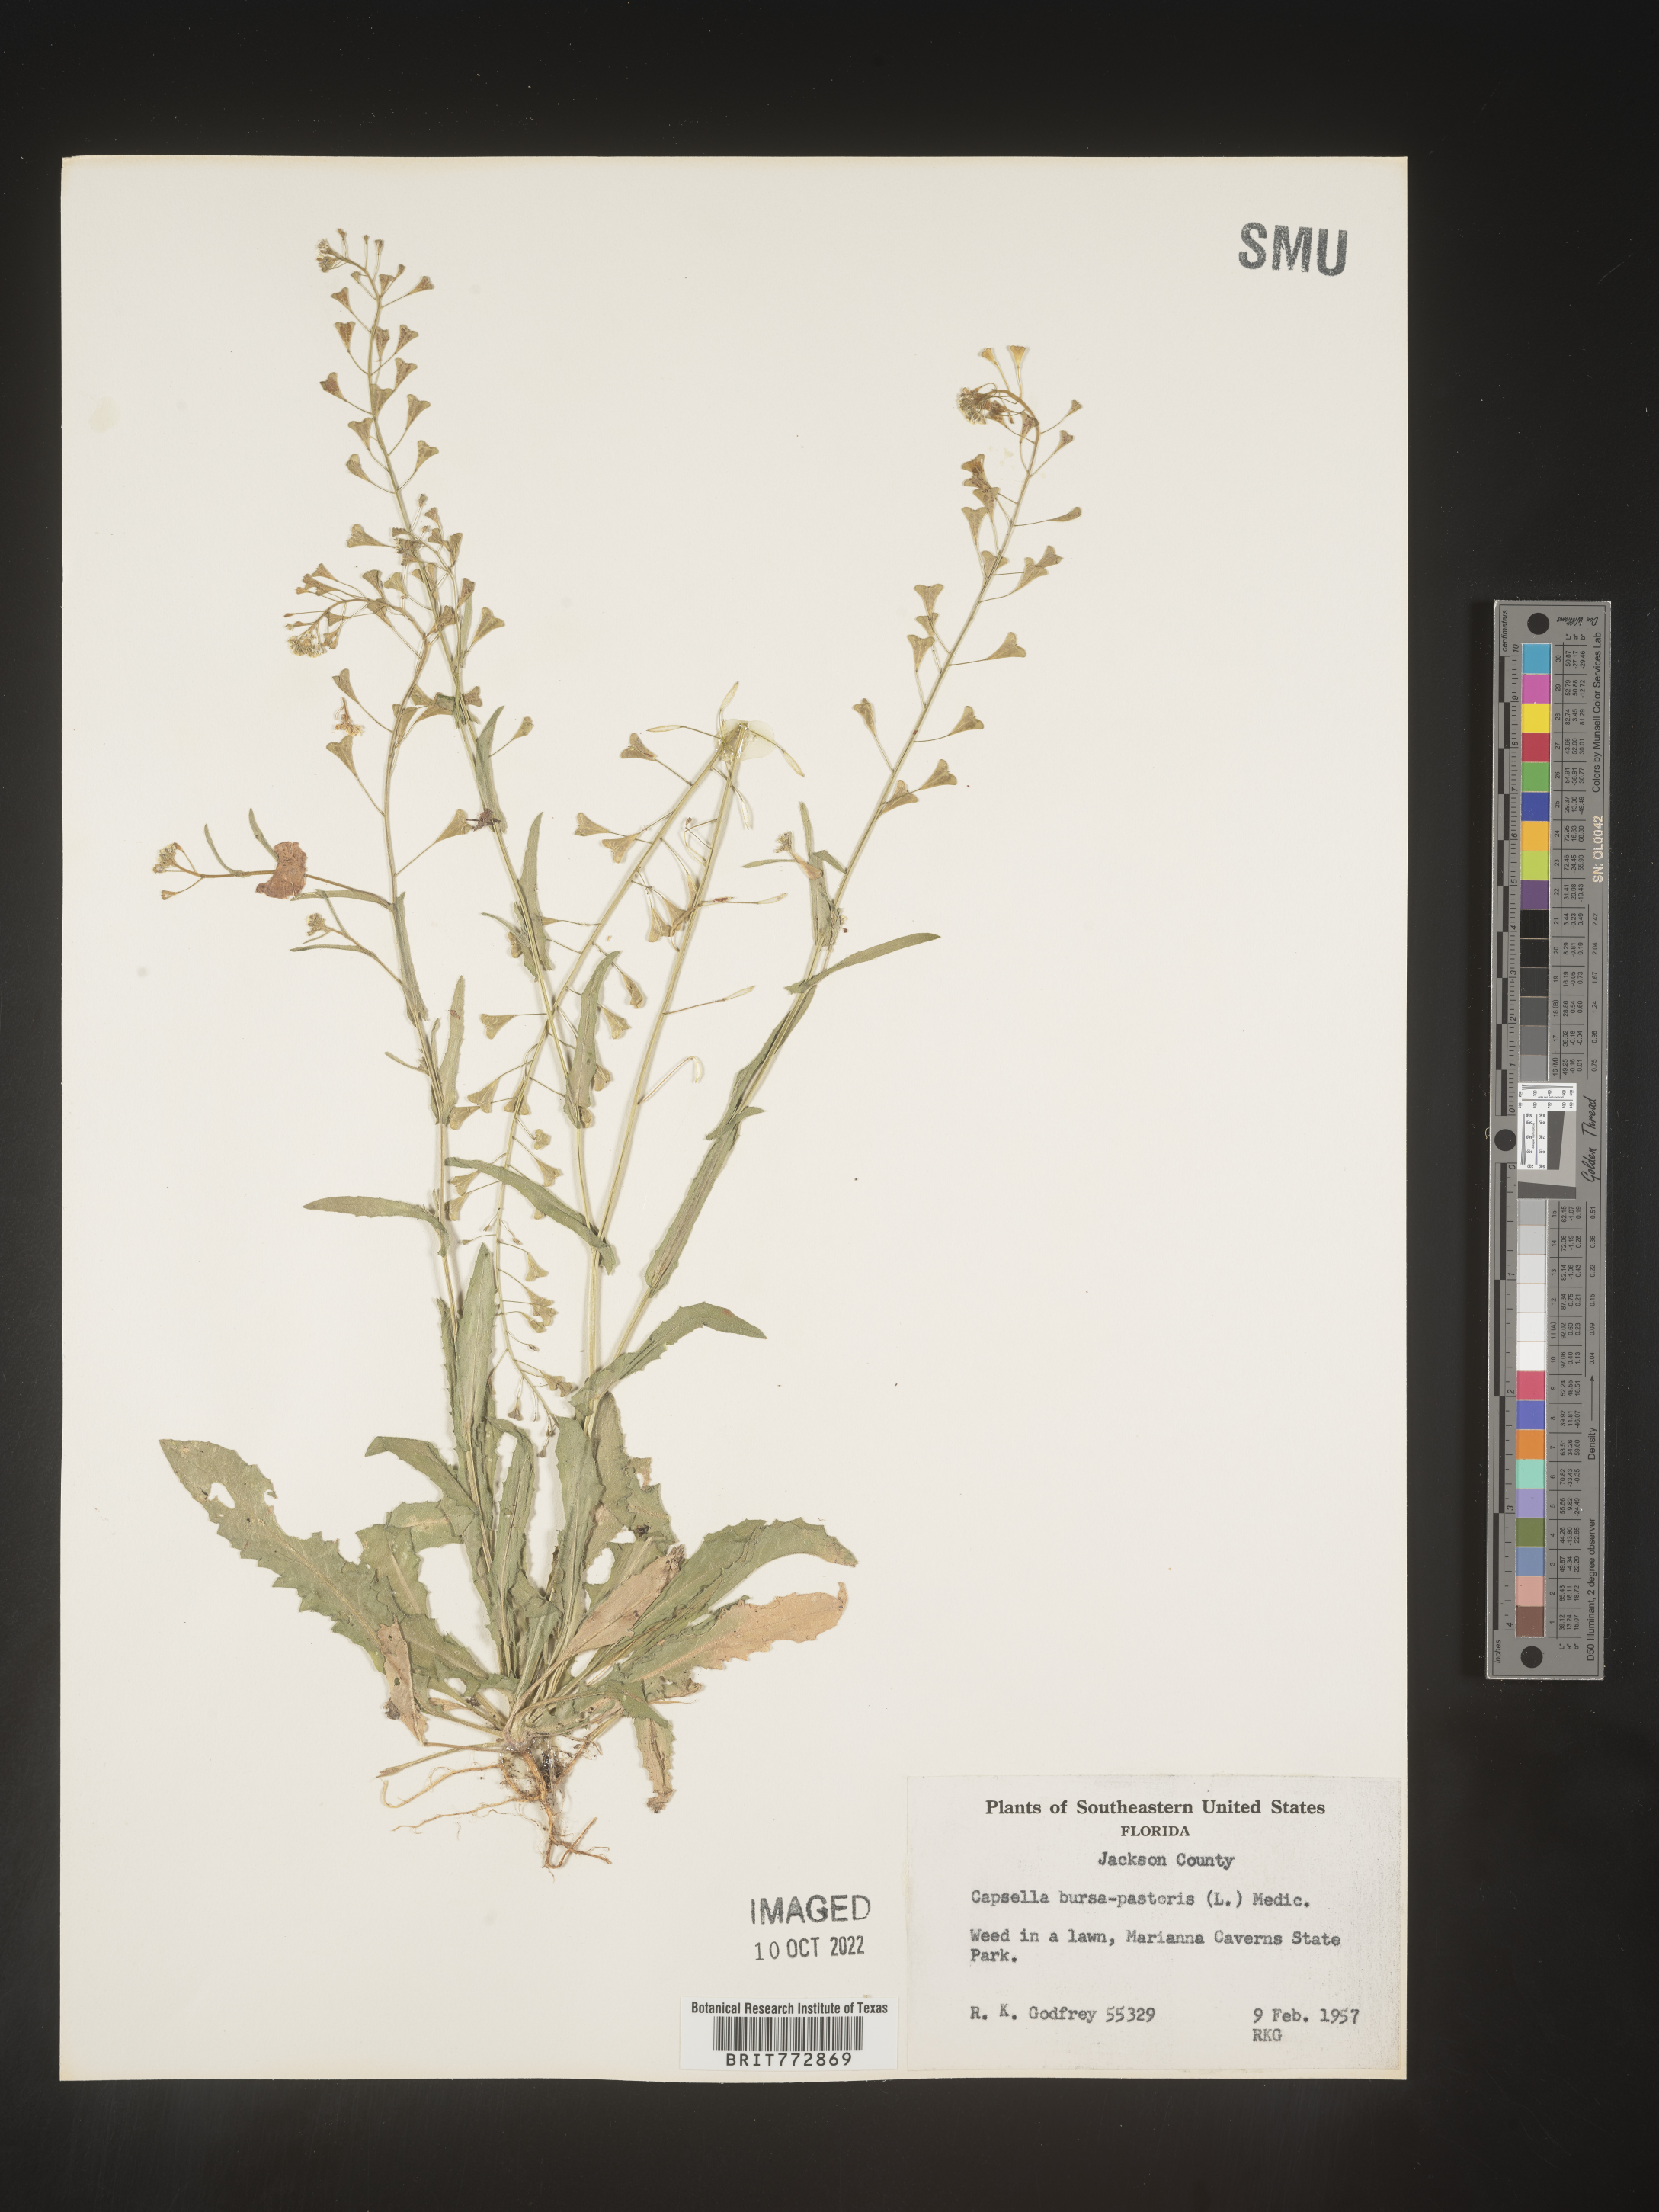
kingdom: Plantae
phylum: Tracheophyta
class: Magnoliopsida
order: Brassicales
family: Brassicaceae
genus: Capsella
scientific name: Capsella bursa-pastoris
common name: Shepherd's purse
